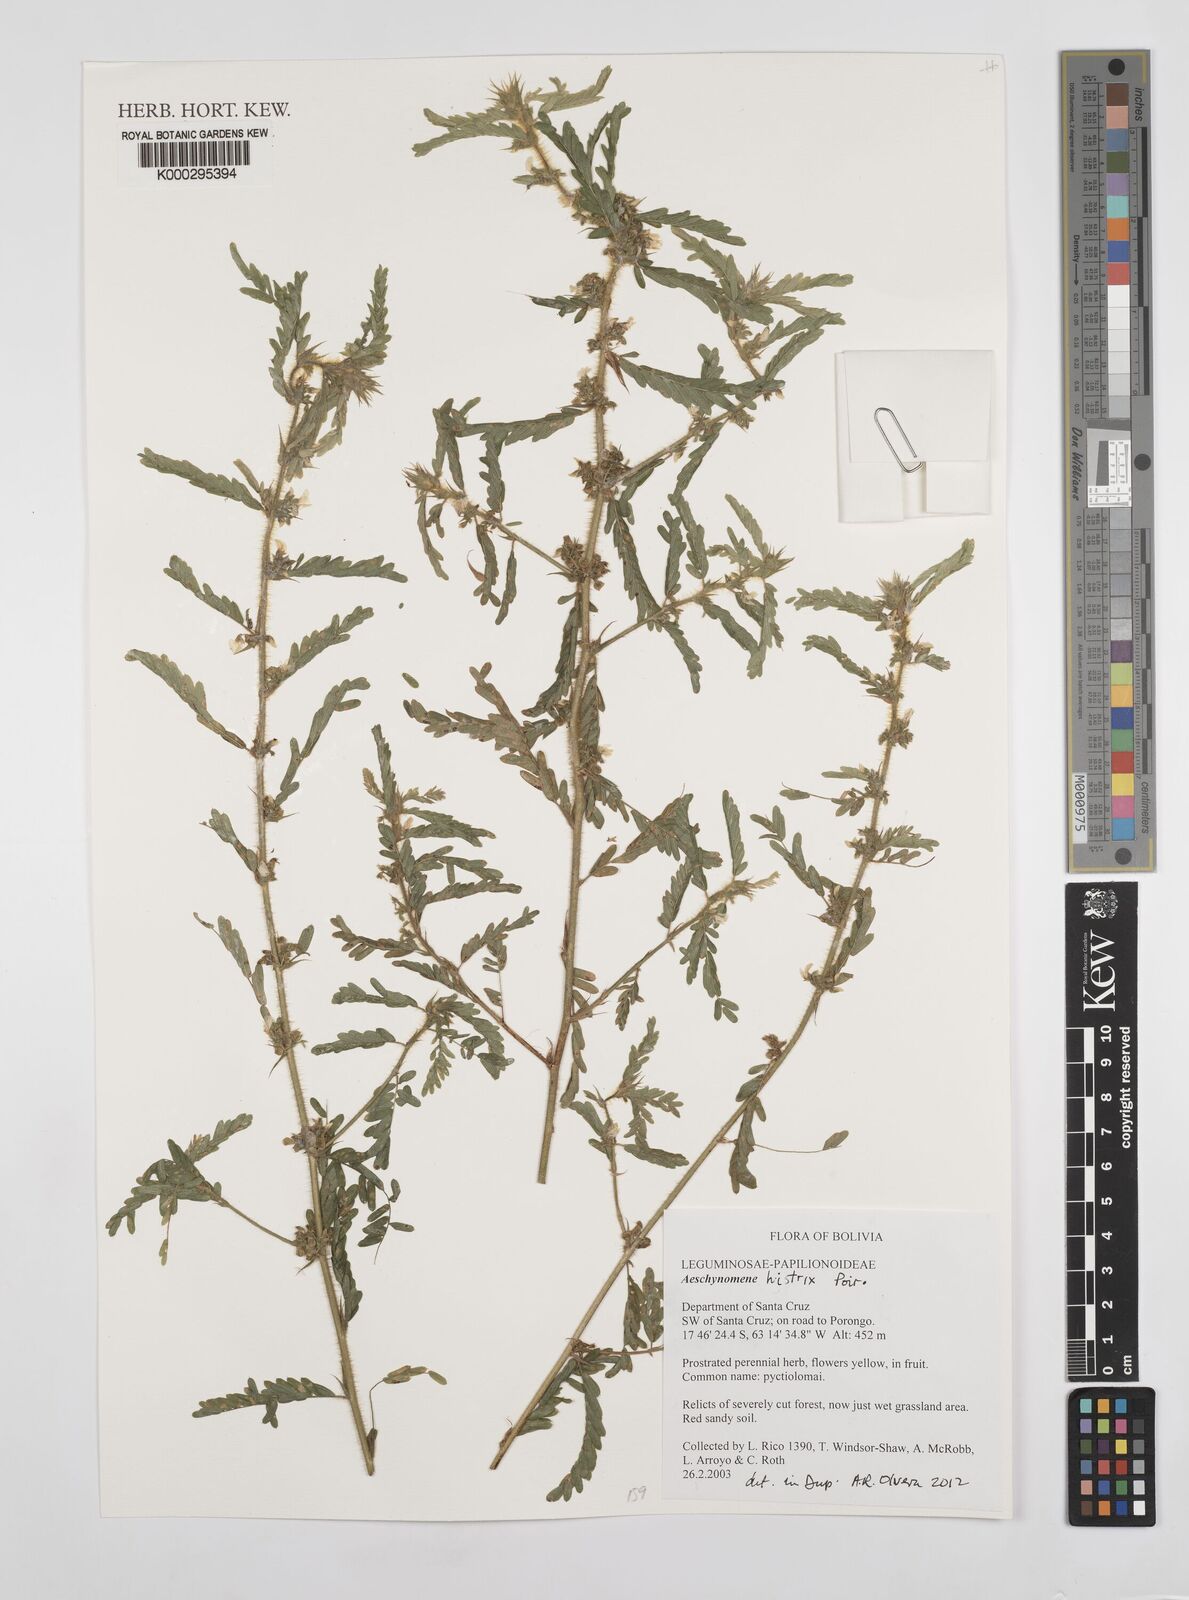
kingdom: Plantae
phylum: Tracheophyta
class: Magnoliopsida
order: Fabales
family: Fabaceae
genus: Ctenodon
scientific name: Ctenodon histrix
